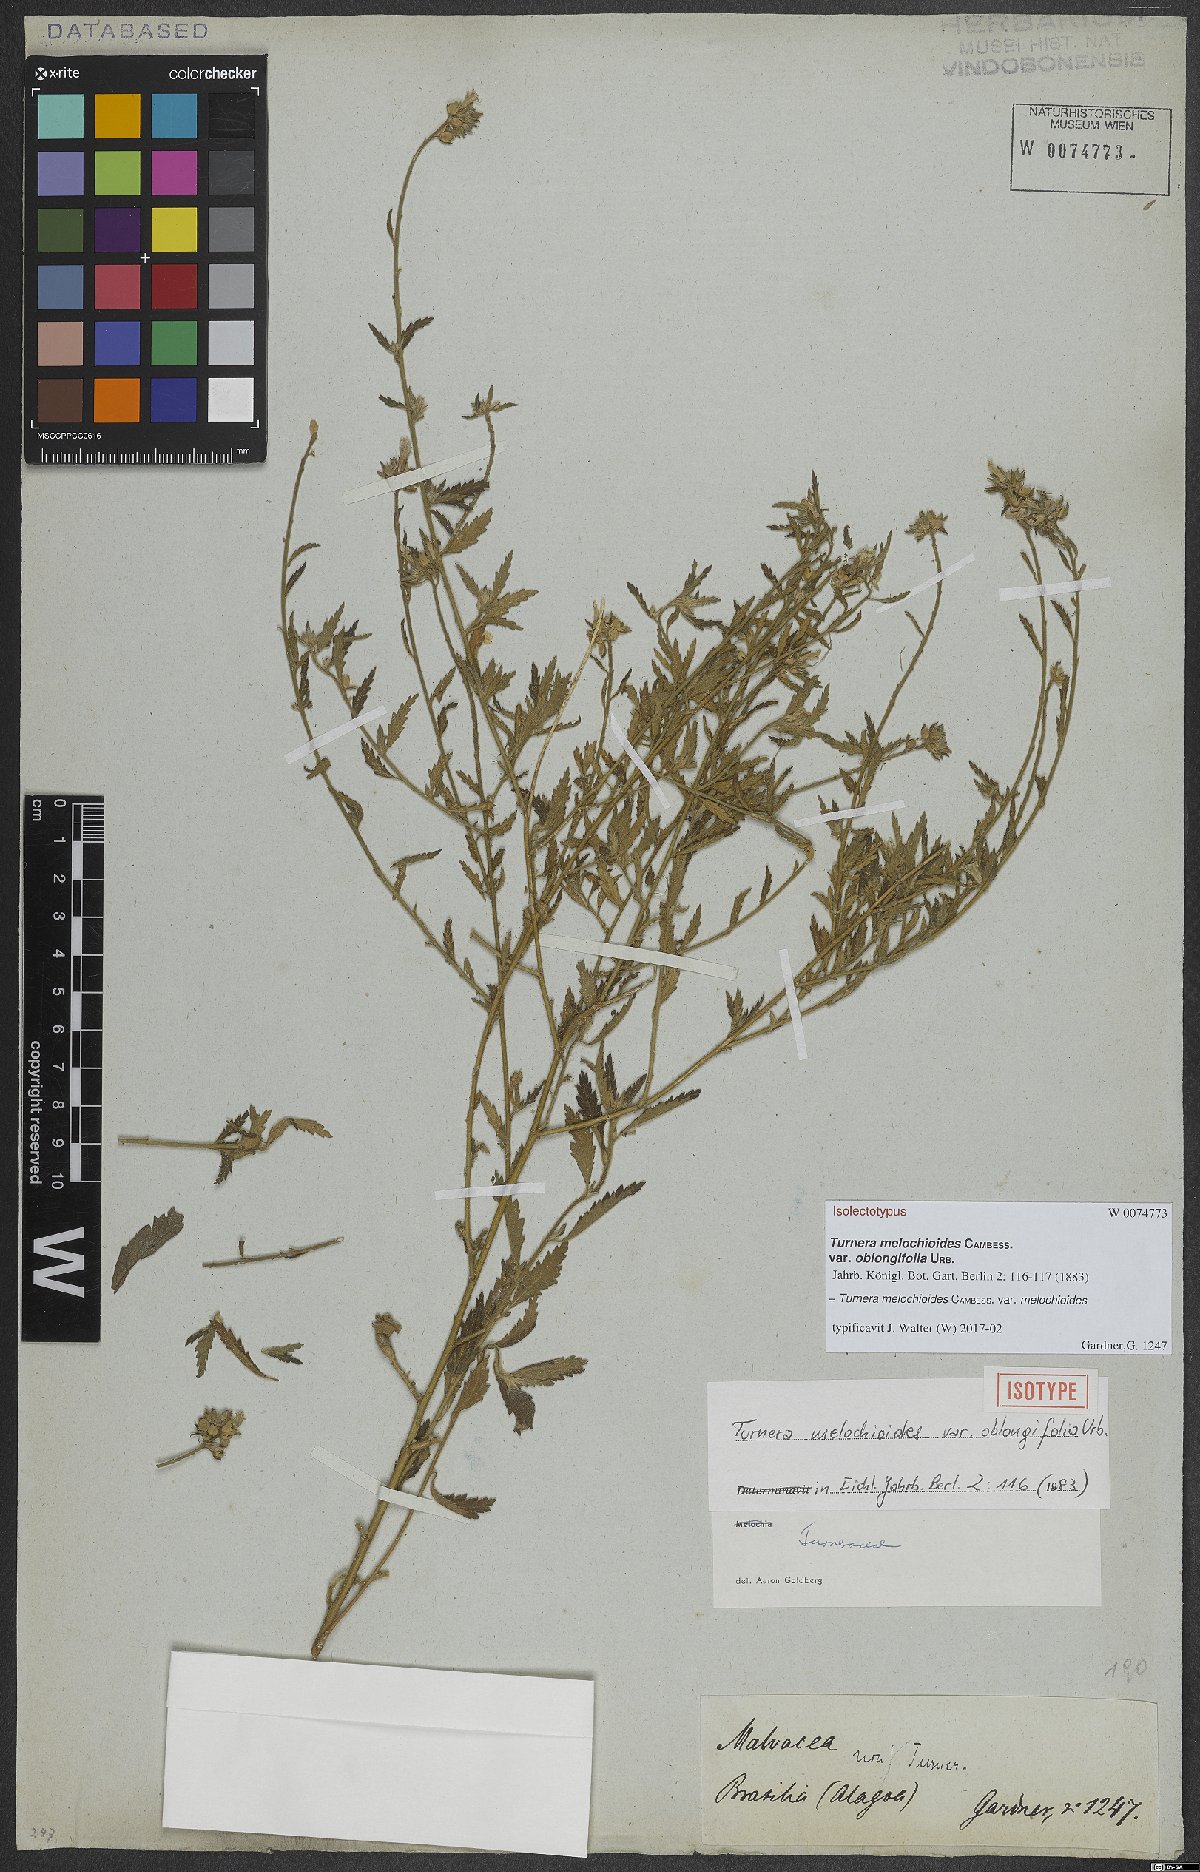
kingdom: Plantae
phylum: Tracheophyta
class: Magnoliopsida
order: Malpighiales
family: Turneraceae
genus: Turnera
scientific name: Turnera melochioides
